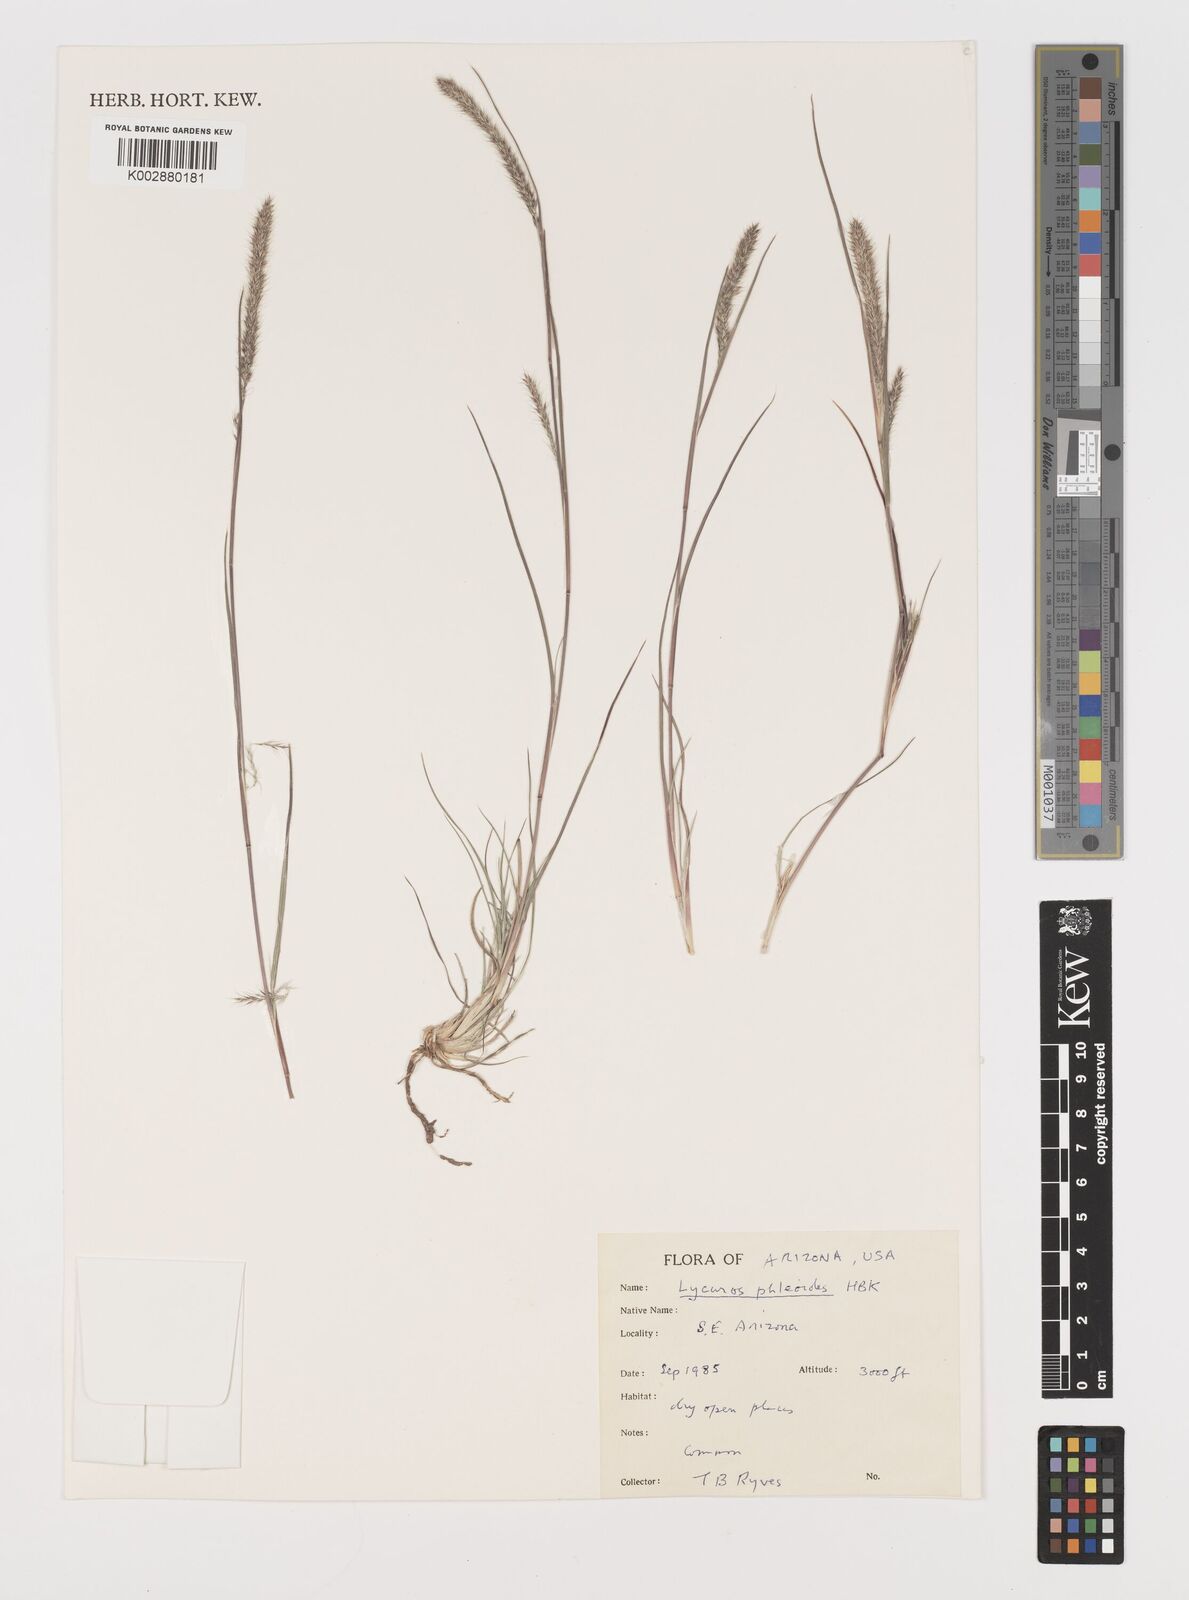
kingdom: Plantae
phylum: Tracheophyta
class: Liliopsida
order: Poales
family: Poaceae
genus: Muhlenbergia
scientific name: Muhlenbergia alopecuroides
